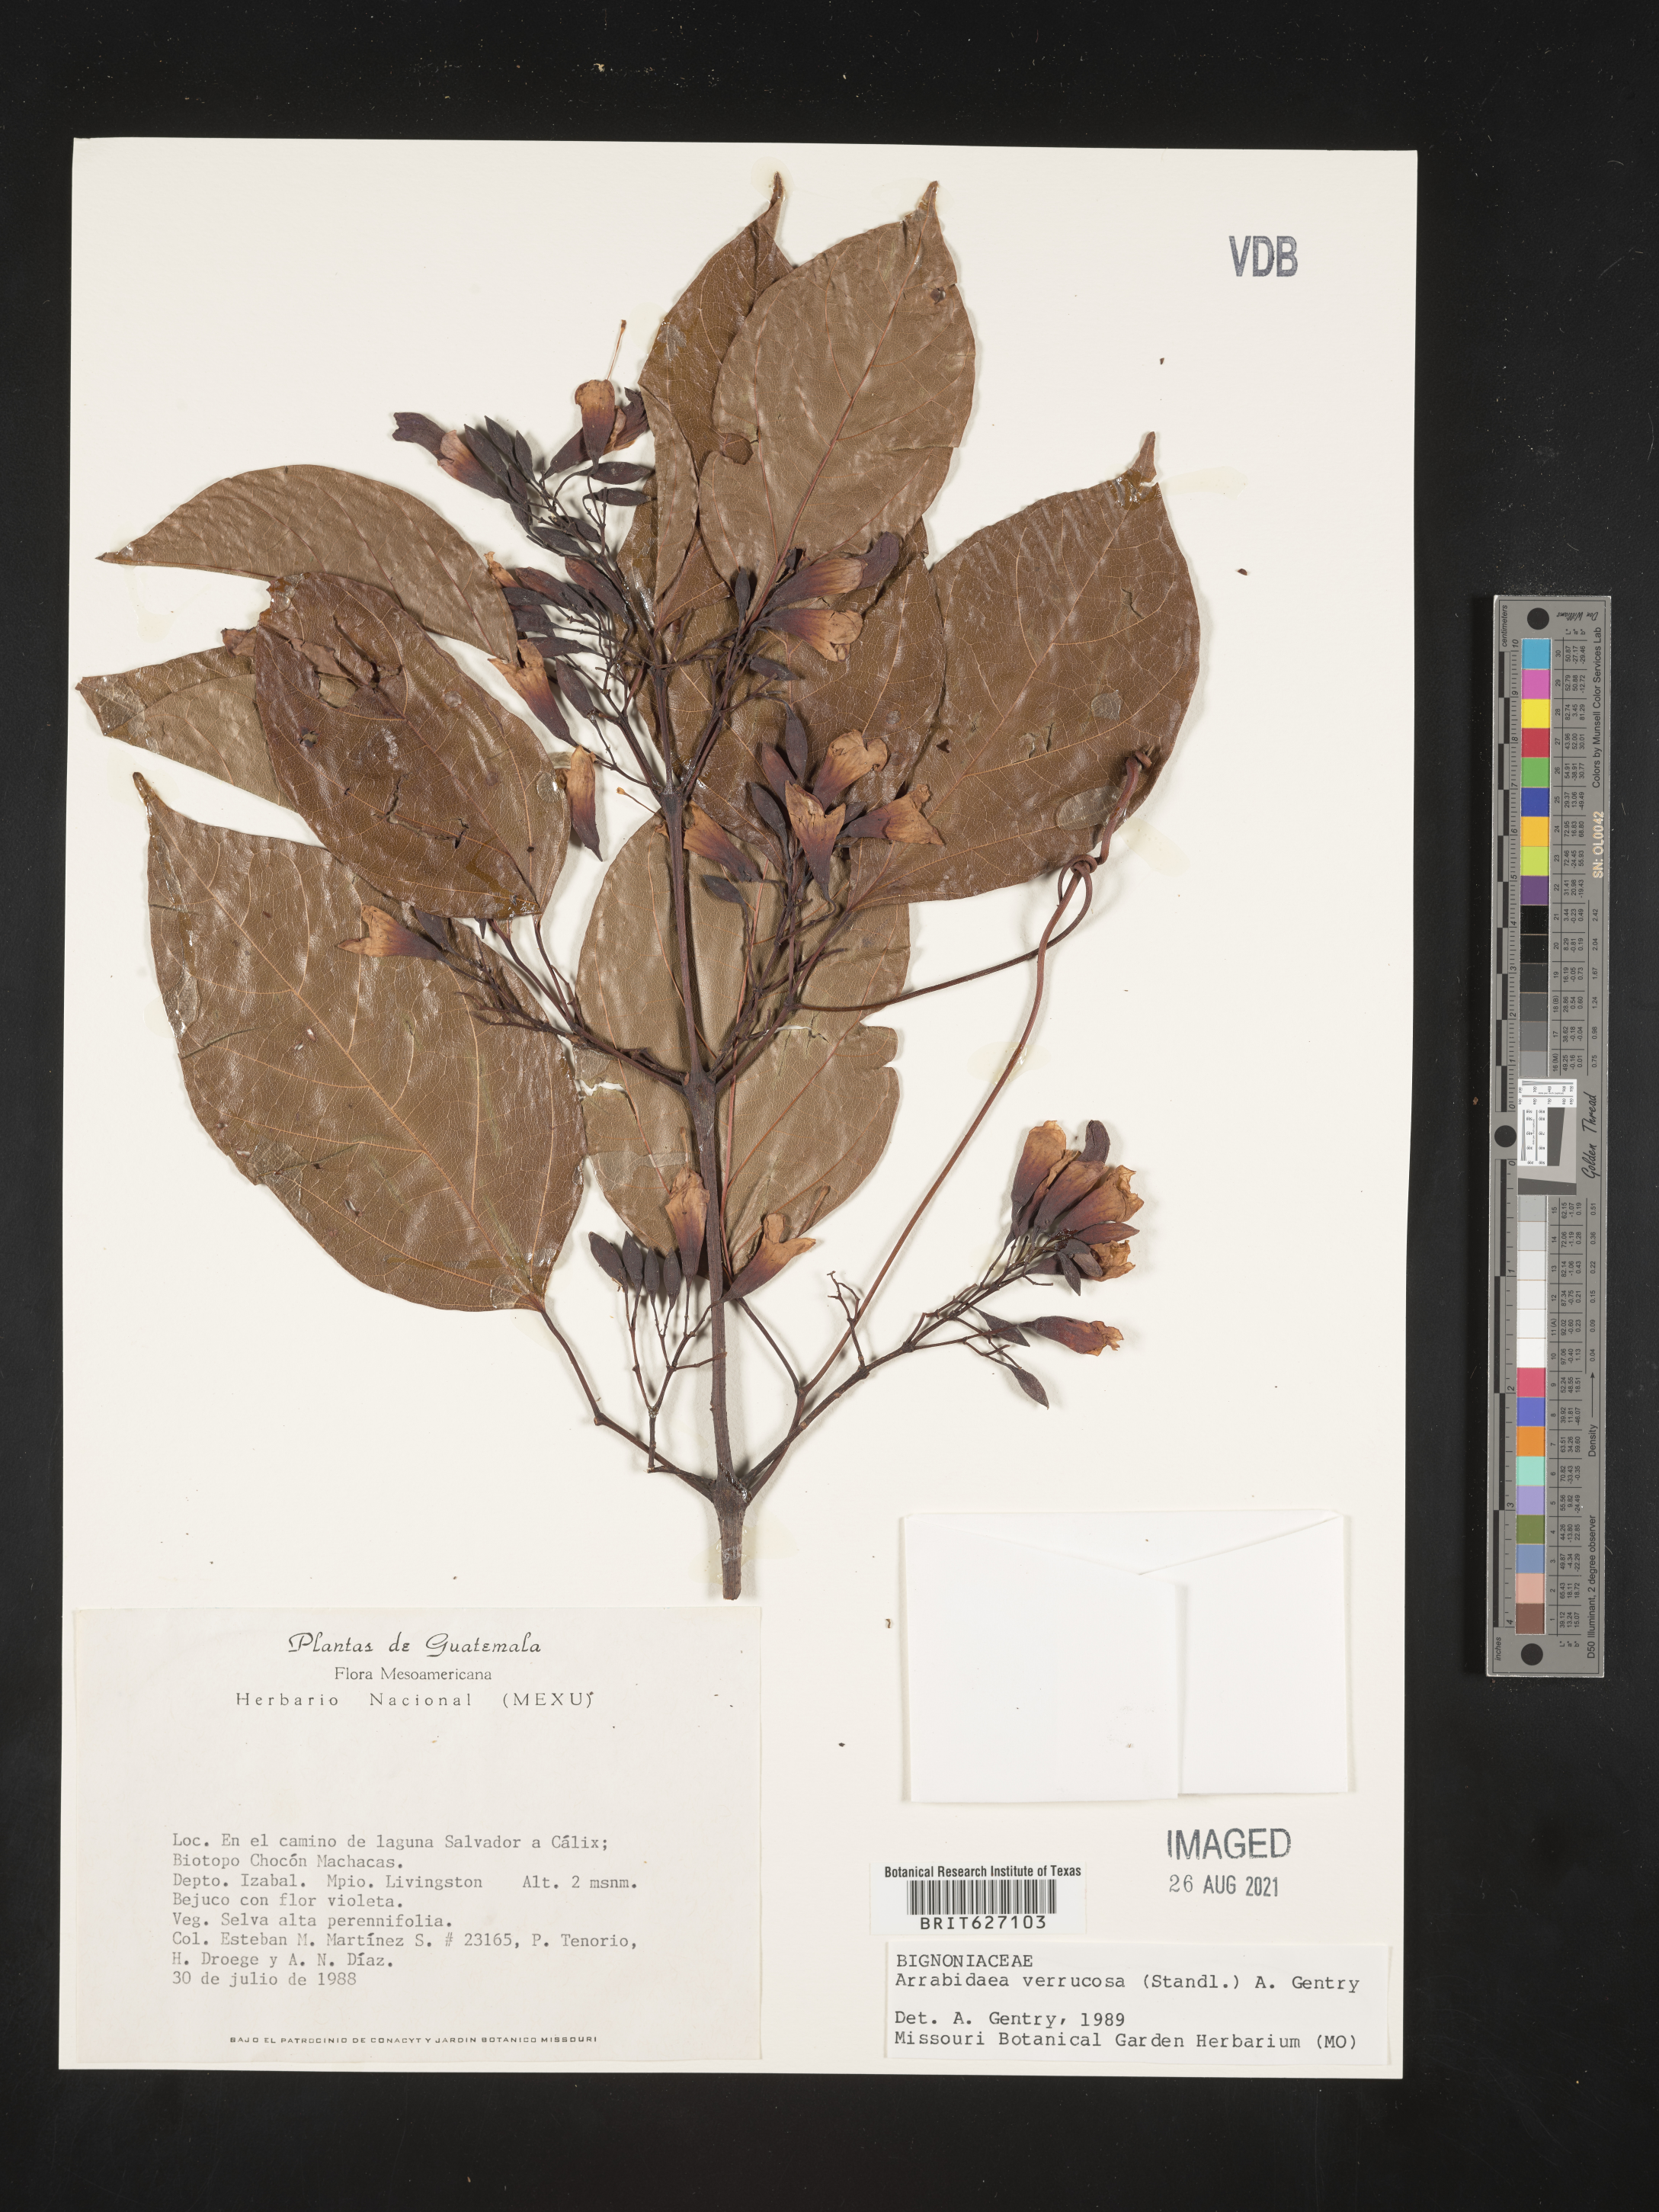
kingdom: Plantae
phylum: Tracheophyta
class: Magnoliopsida
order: Lamiales
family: Bignoniaceae
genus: Fridericia
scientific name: Fridericia schumanniana
